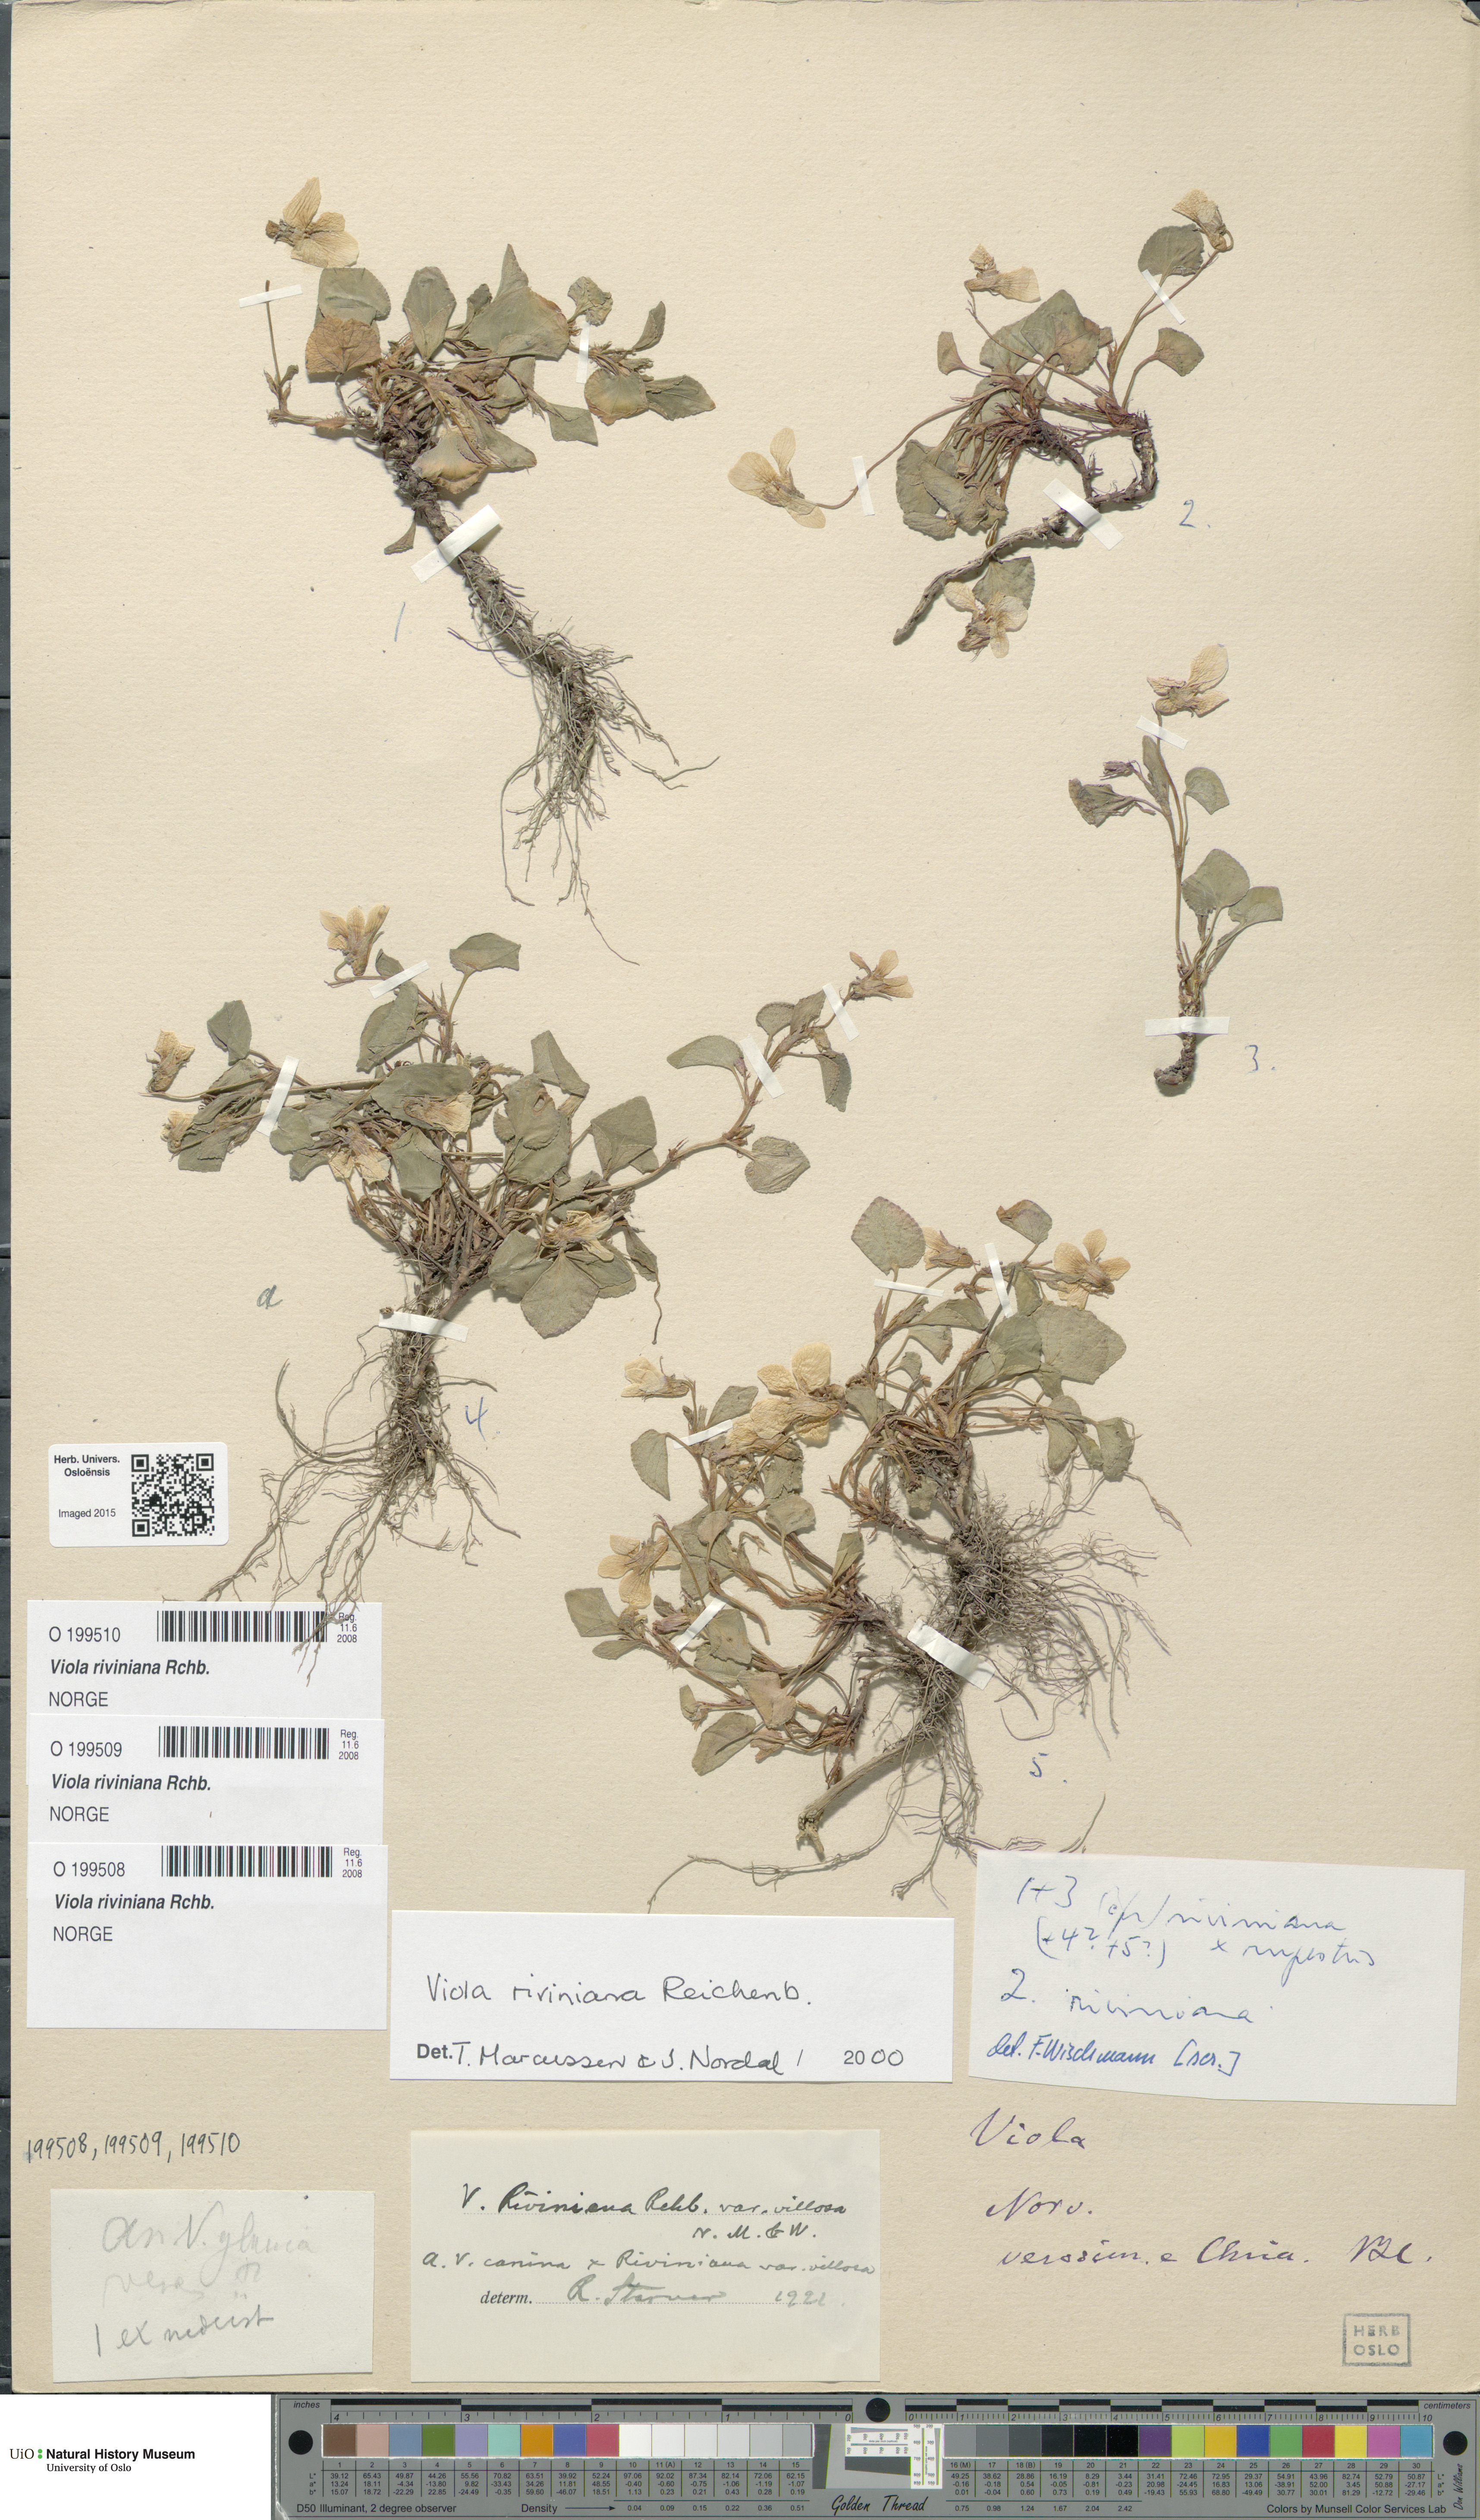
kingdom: Plantae
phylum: Tracheophyta
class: Magnoliopsida
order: Malpighiales
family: Violaceae
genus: Viola
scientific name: Viola riviniana
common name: Common dog-violet
